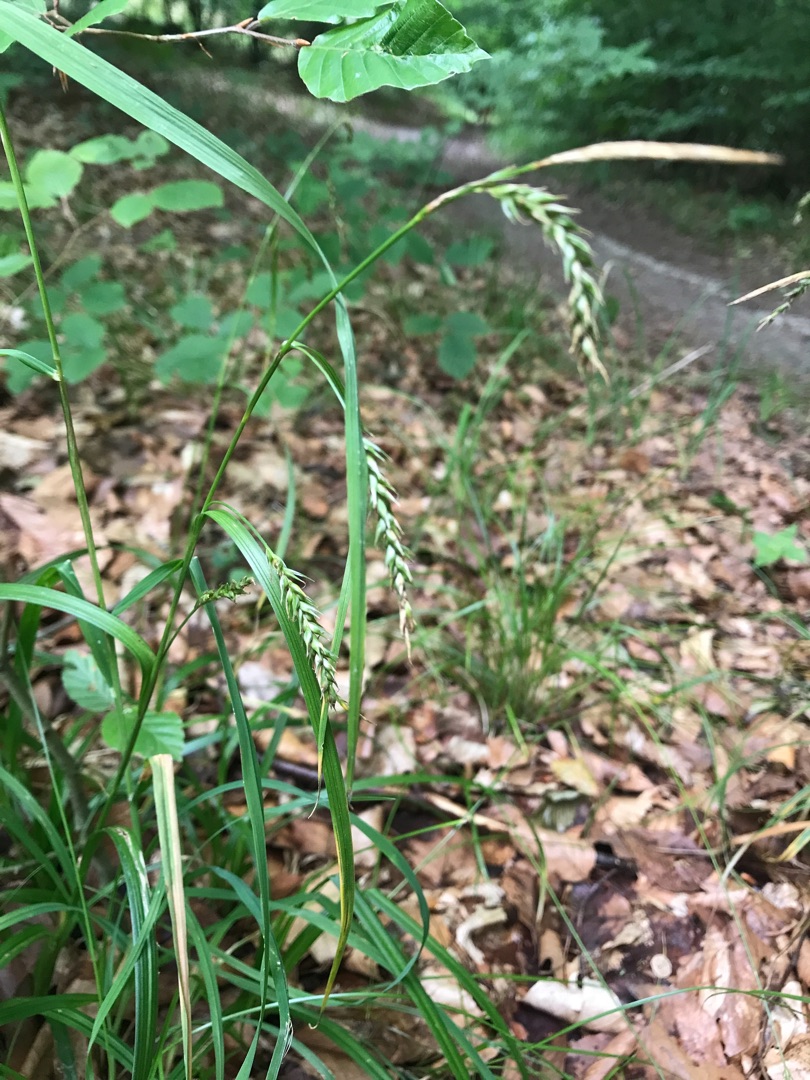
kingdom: Plantae
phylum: Tracheophyta
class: Liliopsida
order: Poales
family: Cyperaceae
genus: Carex
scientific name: Carex sylvatica
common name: Skov-star
